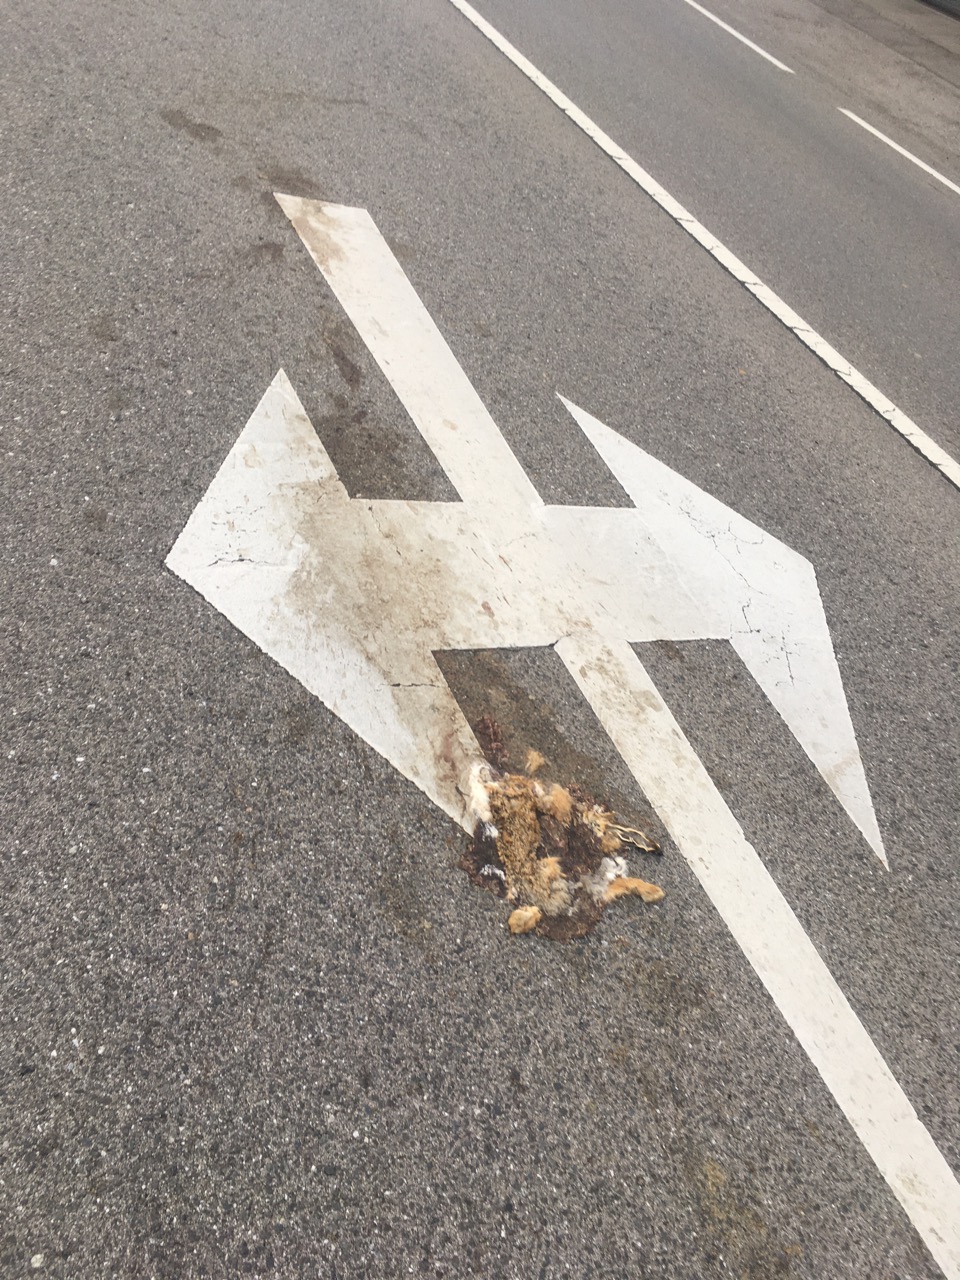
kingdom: Animalia
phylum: Chordata
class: Mammalia
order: Lagomorpha
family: Leporidae
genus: Lepus
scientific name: Lepus europaeus
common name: European hare
